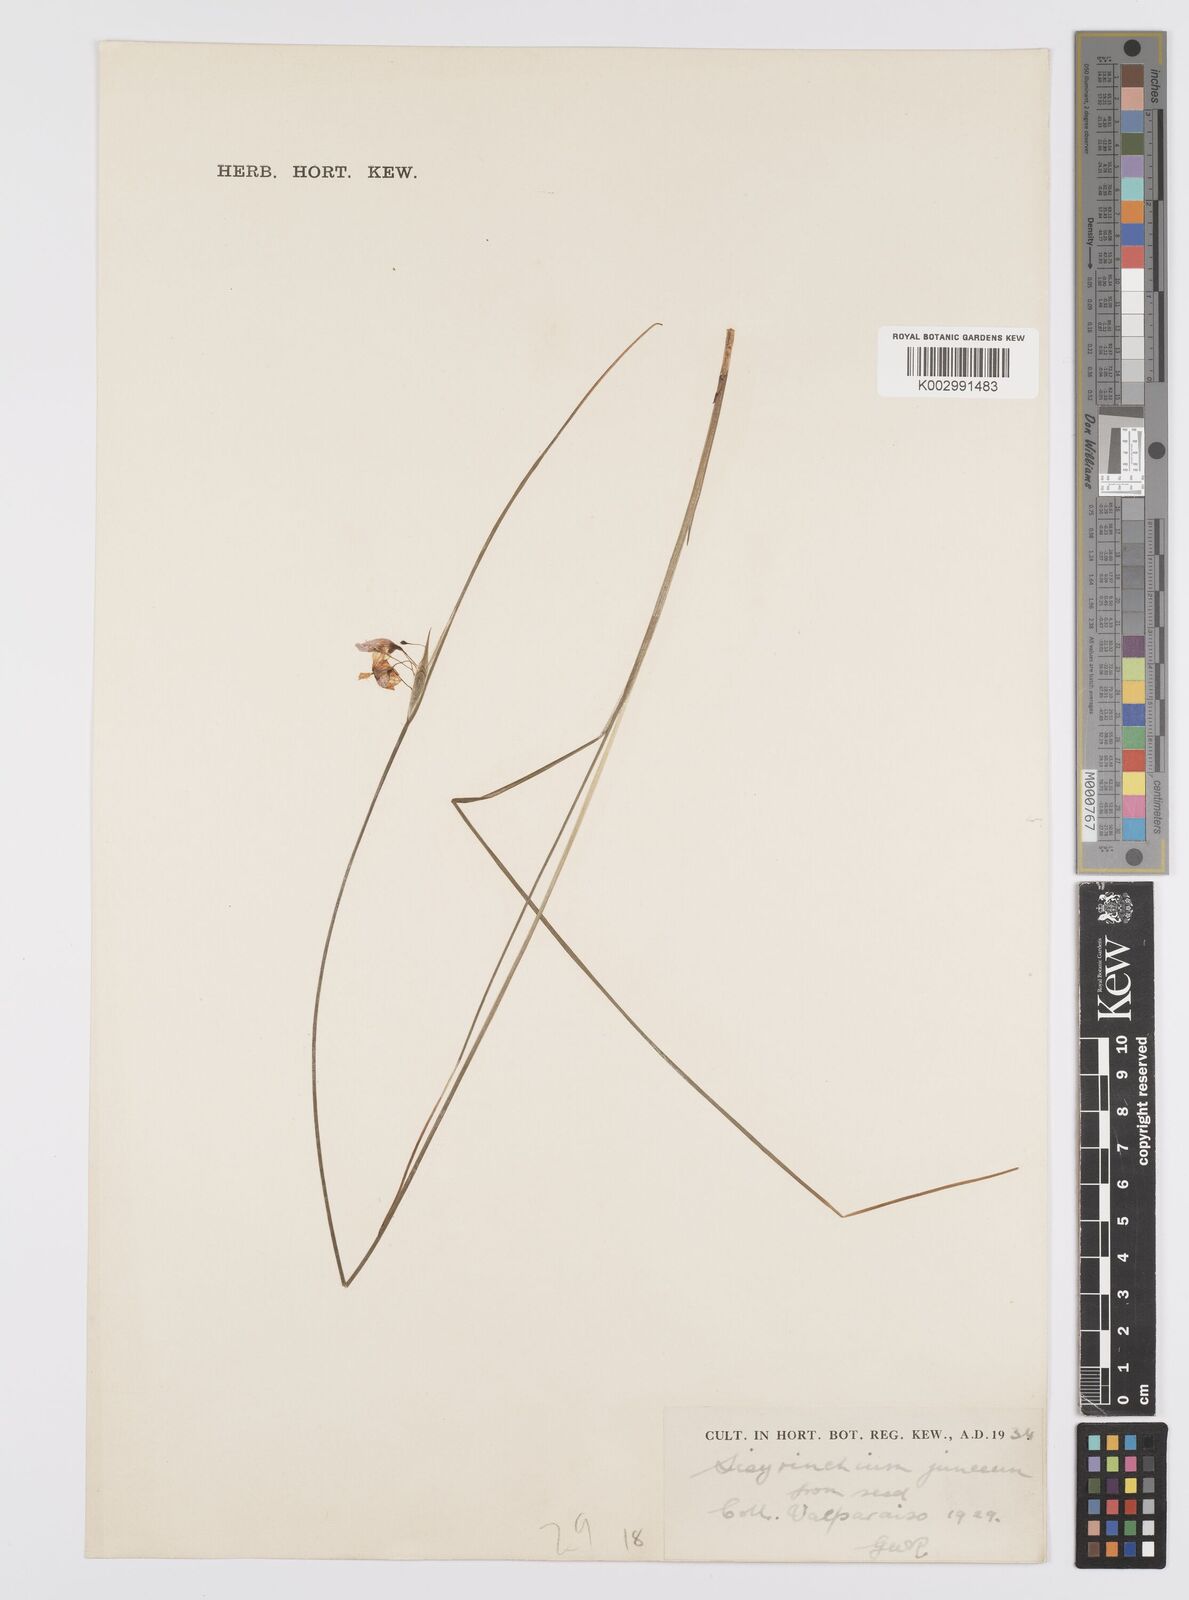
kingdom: Plantae
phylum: Tracheophyta
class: Liliopsida
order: Asparagales
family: Iridaceae
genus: Olsynium
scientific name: Olsynium junceum
